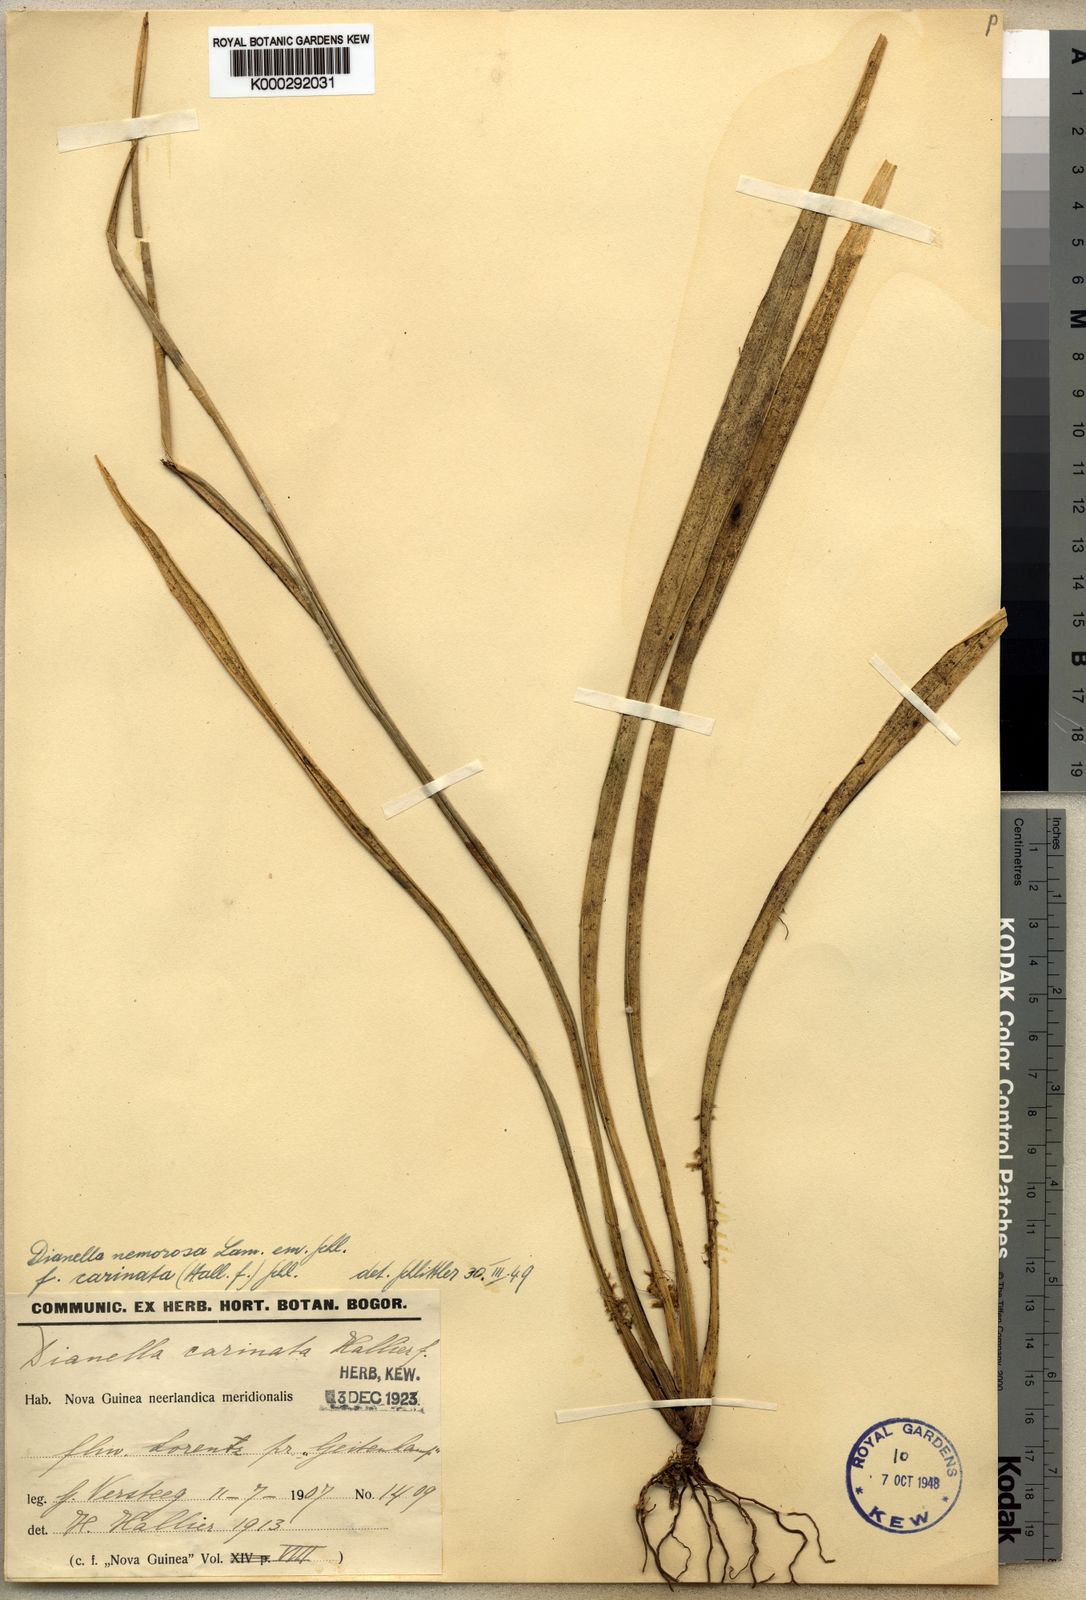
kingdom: Plantae
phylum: Tracheophyta
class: Liliopsida
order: Asparagales
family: Asphodelaceae
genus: Dianella
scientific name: Dianella ensifolia
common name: New zealand lilyplant
